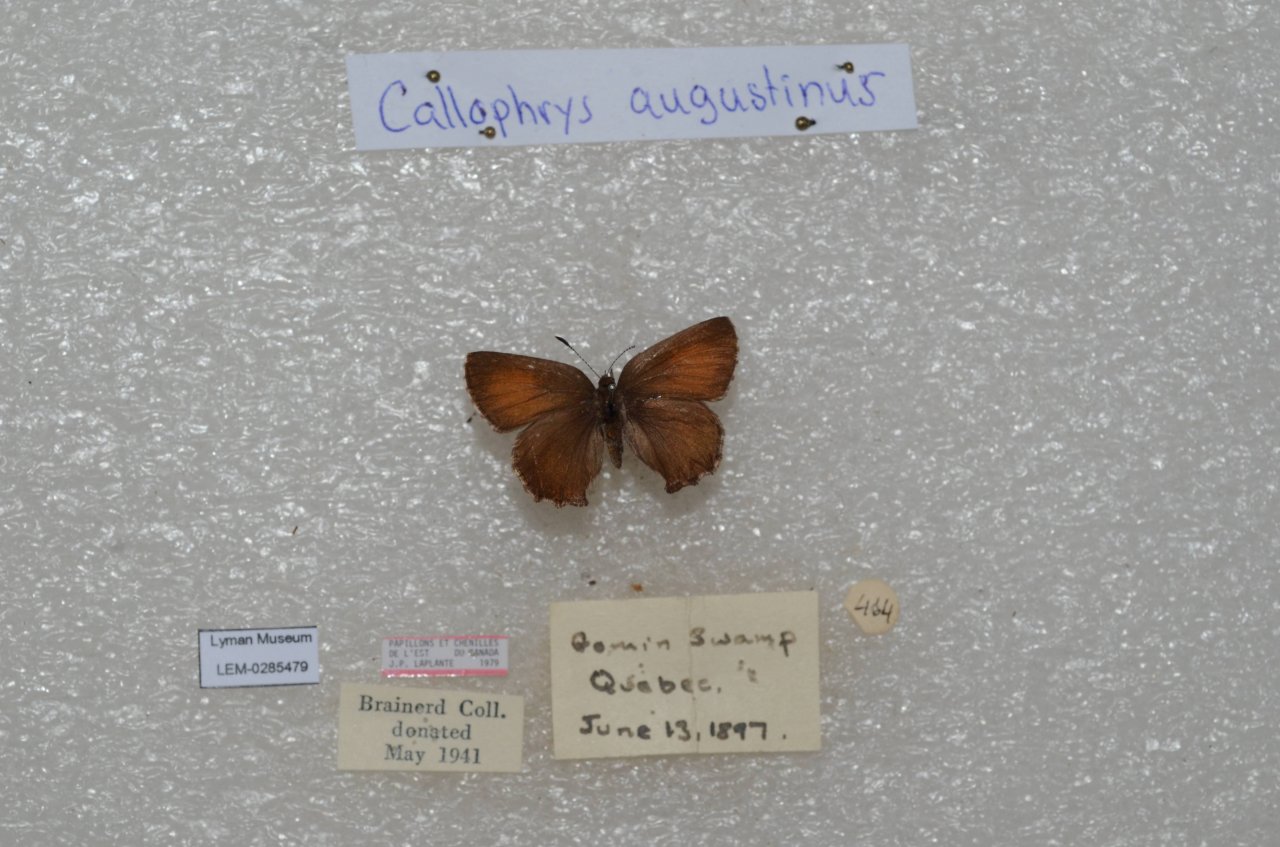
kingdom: Animalia
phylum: Arthropoda
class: Insecta
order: Lepidoptera
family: Lycaenidae
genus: Incisalia
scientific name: Incisalia irioides
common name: Brown Elfin
